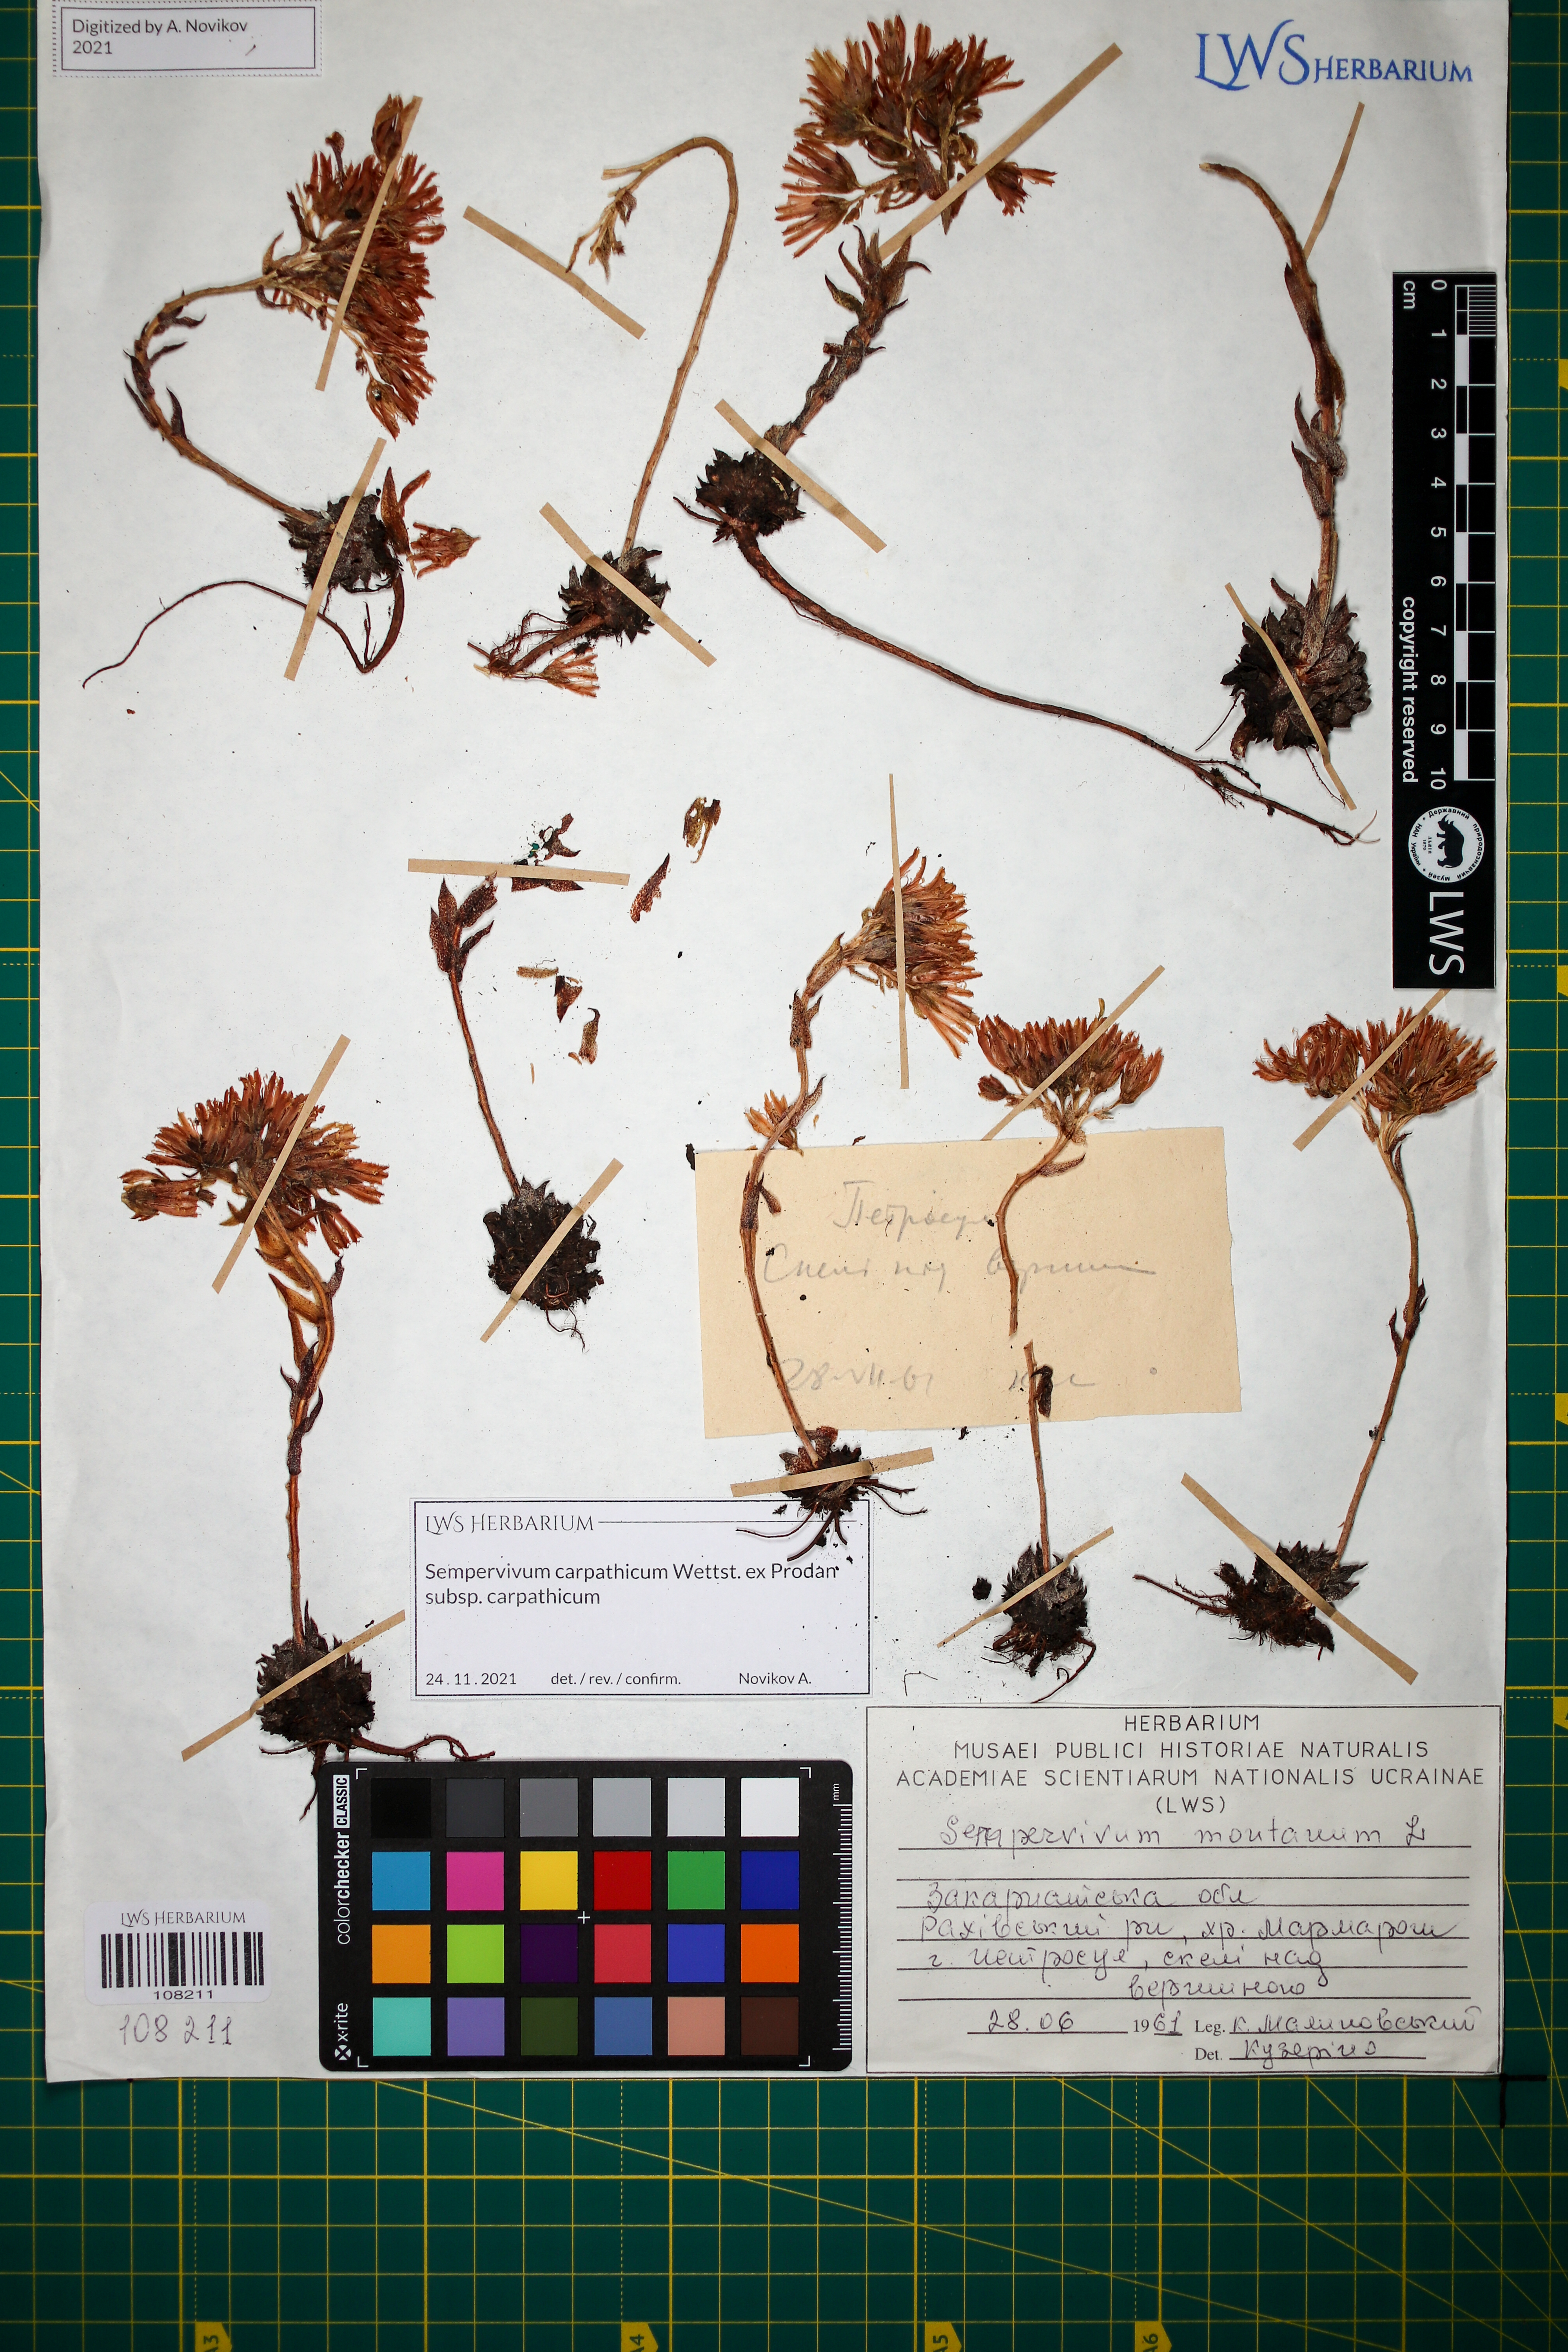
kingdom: Plantae
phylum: Tracheophyta
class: Magnoliopsida
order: Saxifragales
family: Crassulaceae
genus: Sempervivum
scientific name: Sempervivum montanum
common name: Mountain house-leek
